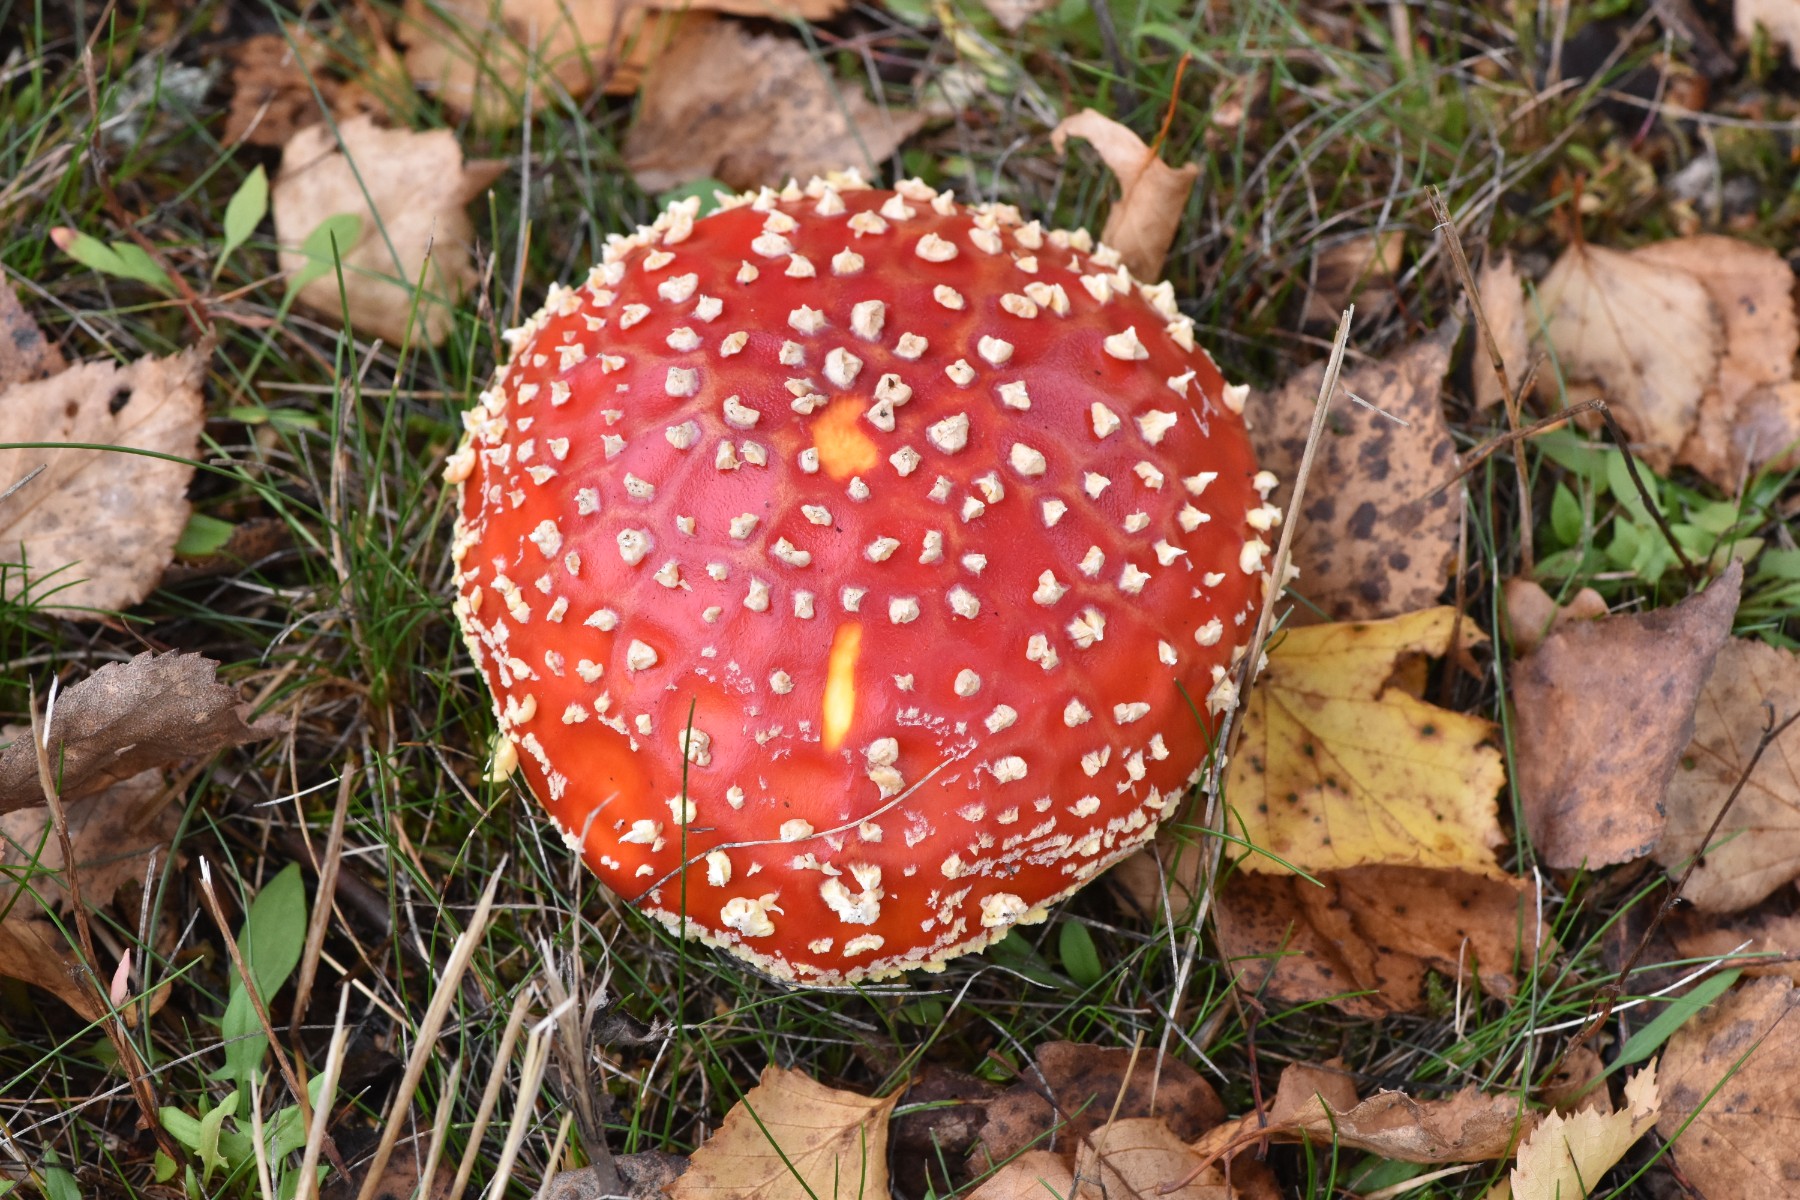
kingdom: Fungi
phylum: Basidiomycota
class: Agaricomycetes
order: Agaricales
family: Amanitaceae
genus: Amanita
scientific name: Amanita muscaria
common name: rød fluesvamp
